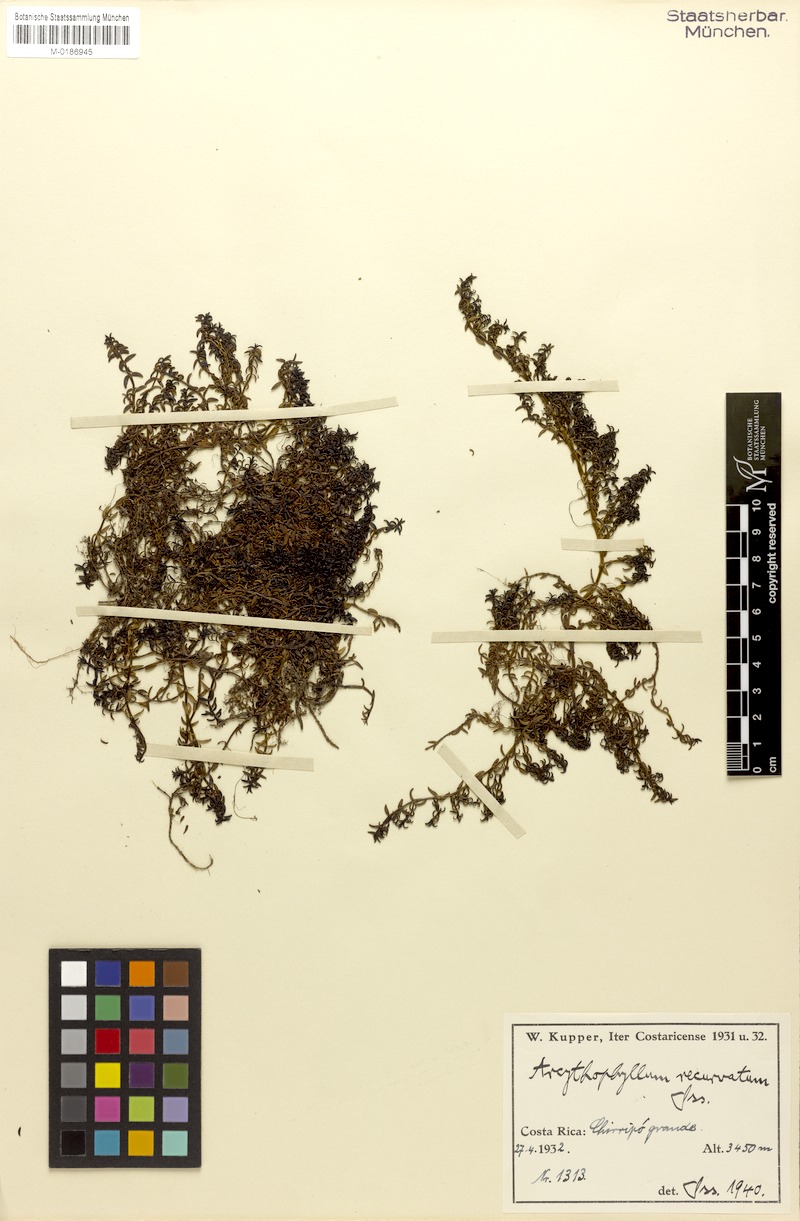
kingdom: Plantae
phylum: Tracheophyta
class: Magnoliopsida
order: Gentianales
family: Rubiaceae
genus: Arcytophyllum
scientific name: Arcytophyllum muticum
